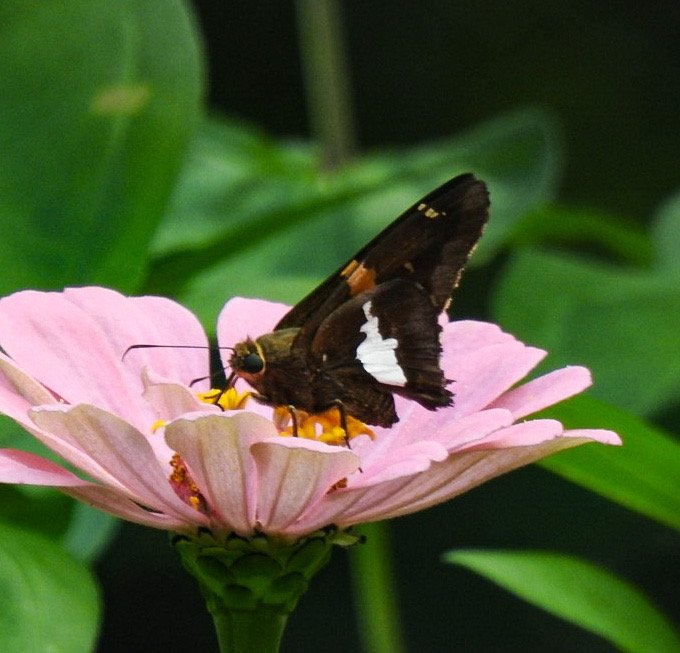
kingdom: Animalia
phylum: Arthropoda
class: Insecta
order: Lepidoptera
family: Hesperiidae
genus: Epargyreus
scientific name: Epargyreus clarus
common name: Silver-spotted Skipper
